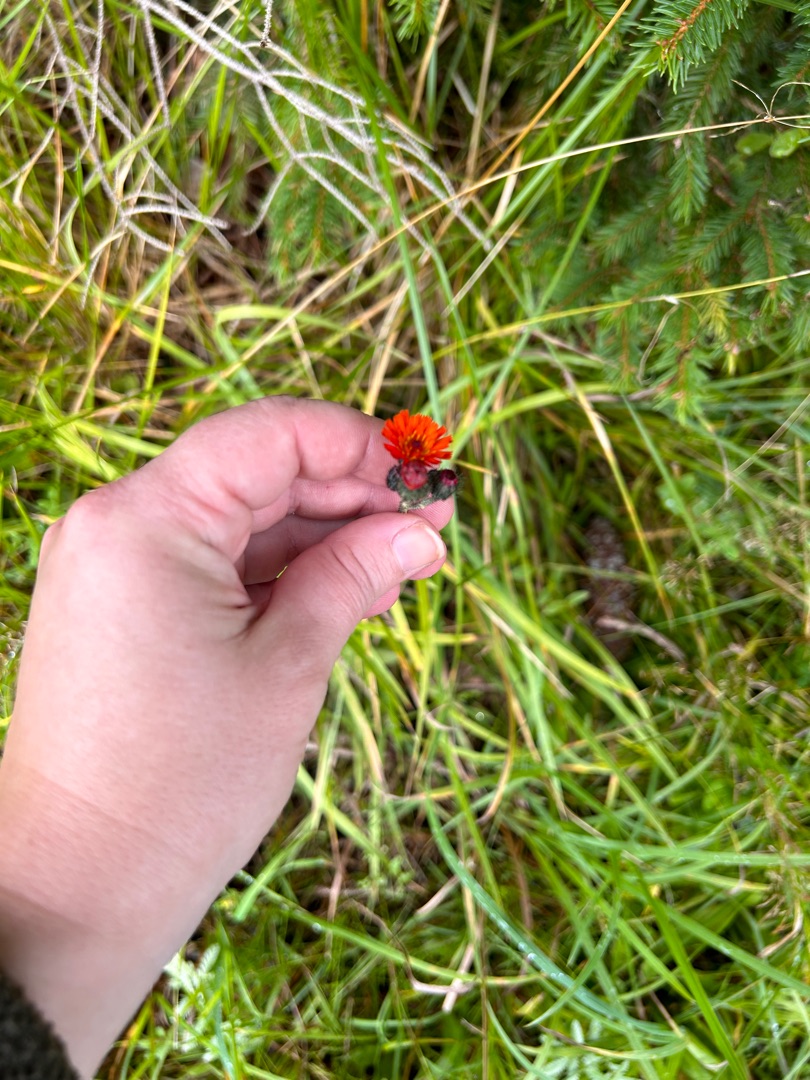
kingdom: Plantae
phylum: Tracheophyta
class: Magnoliopsida
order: Asterales
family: Asteraceae
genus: Pilosella
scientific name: Pilosella aurantiaca
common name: Pomerans-høgeurt
